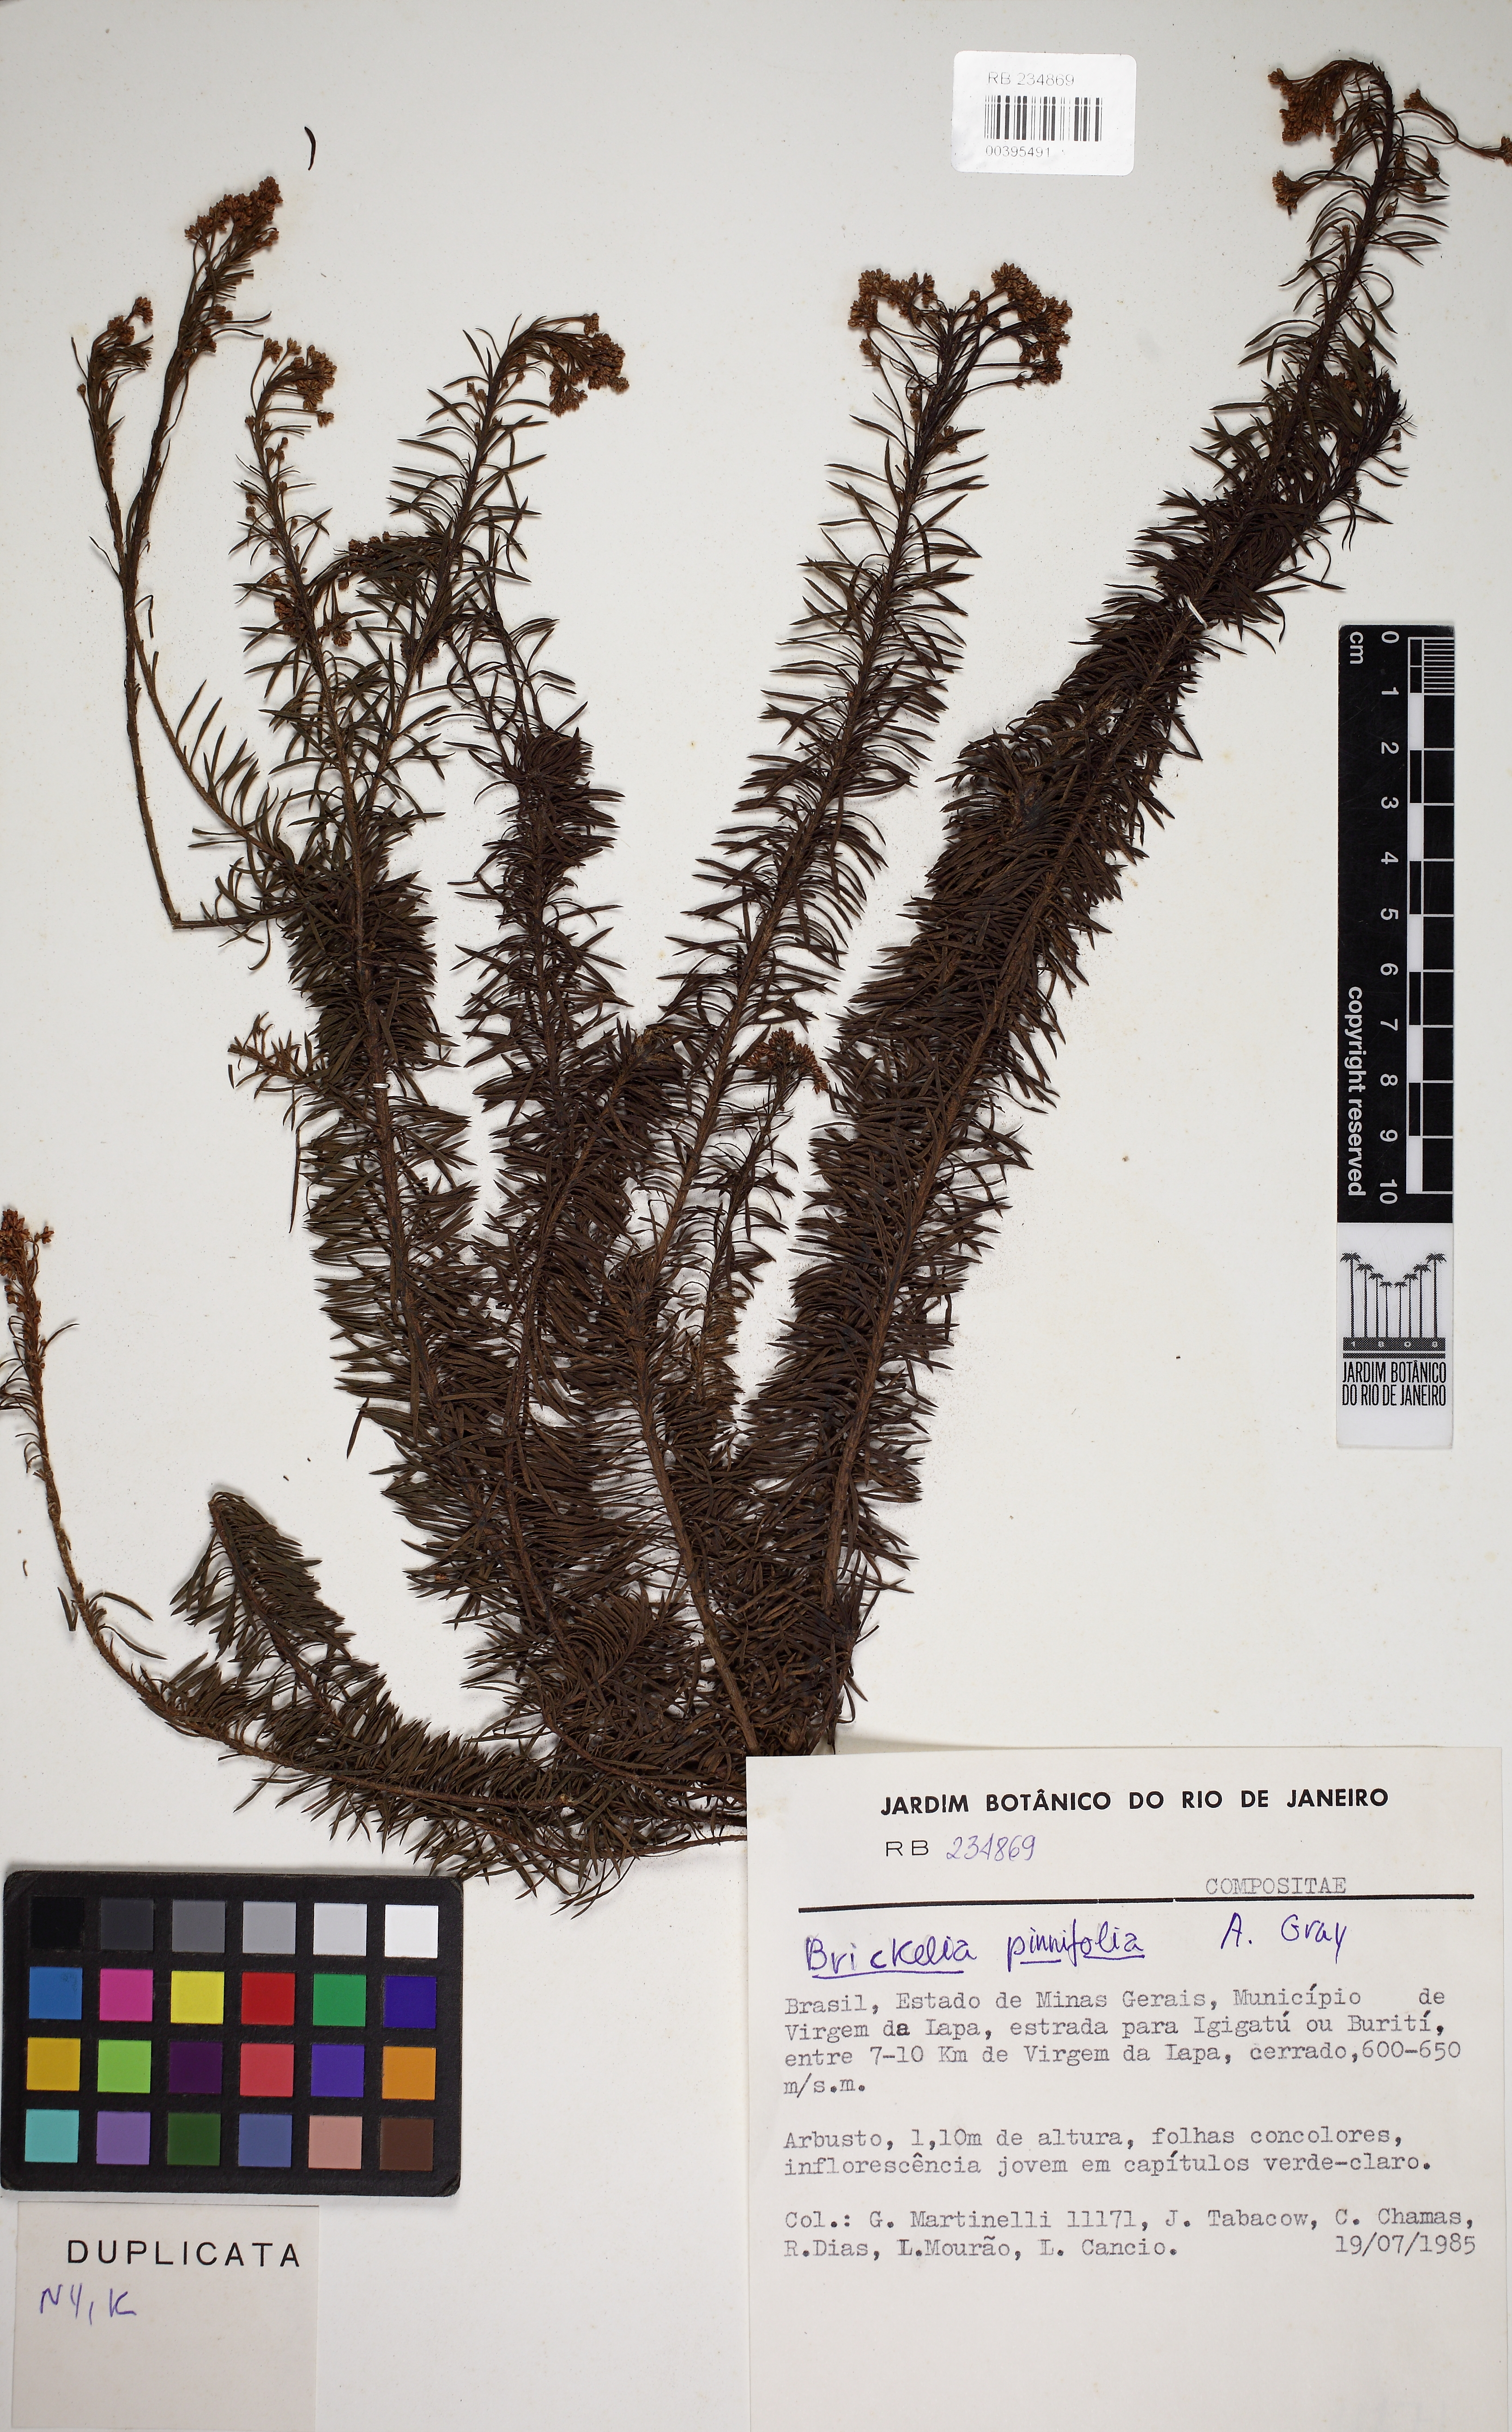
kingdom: Plantae
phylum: Tracheophyta
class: Magnoliopsida
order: Asterales
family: Asteraceae
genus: Pseudobrickellia
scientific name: Pseudobrickellia brasiliensis
